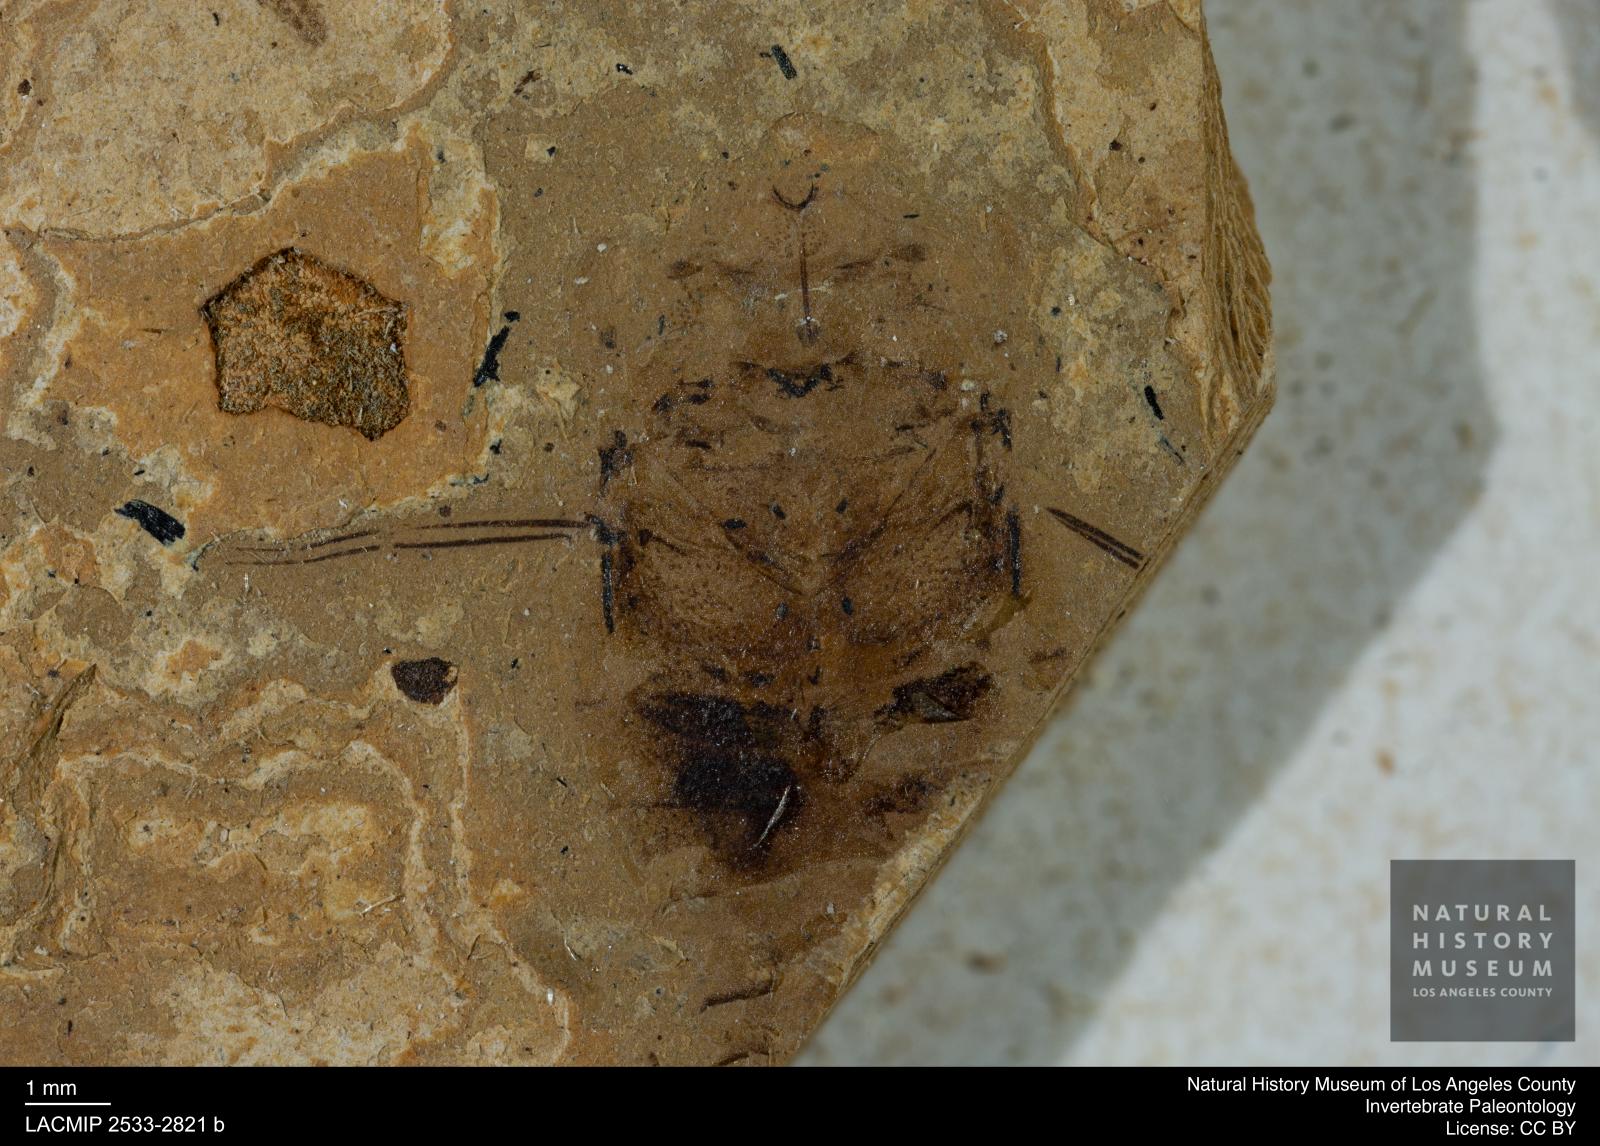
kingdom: Animalia
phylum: Arthropoda
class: Insecta
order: Hemiptera
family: Naucoridae
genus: Naucoris
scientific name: Naucoris rottensis
